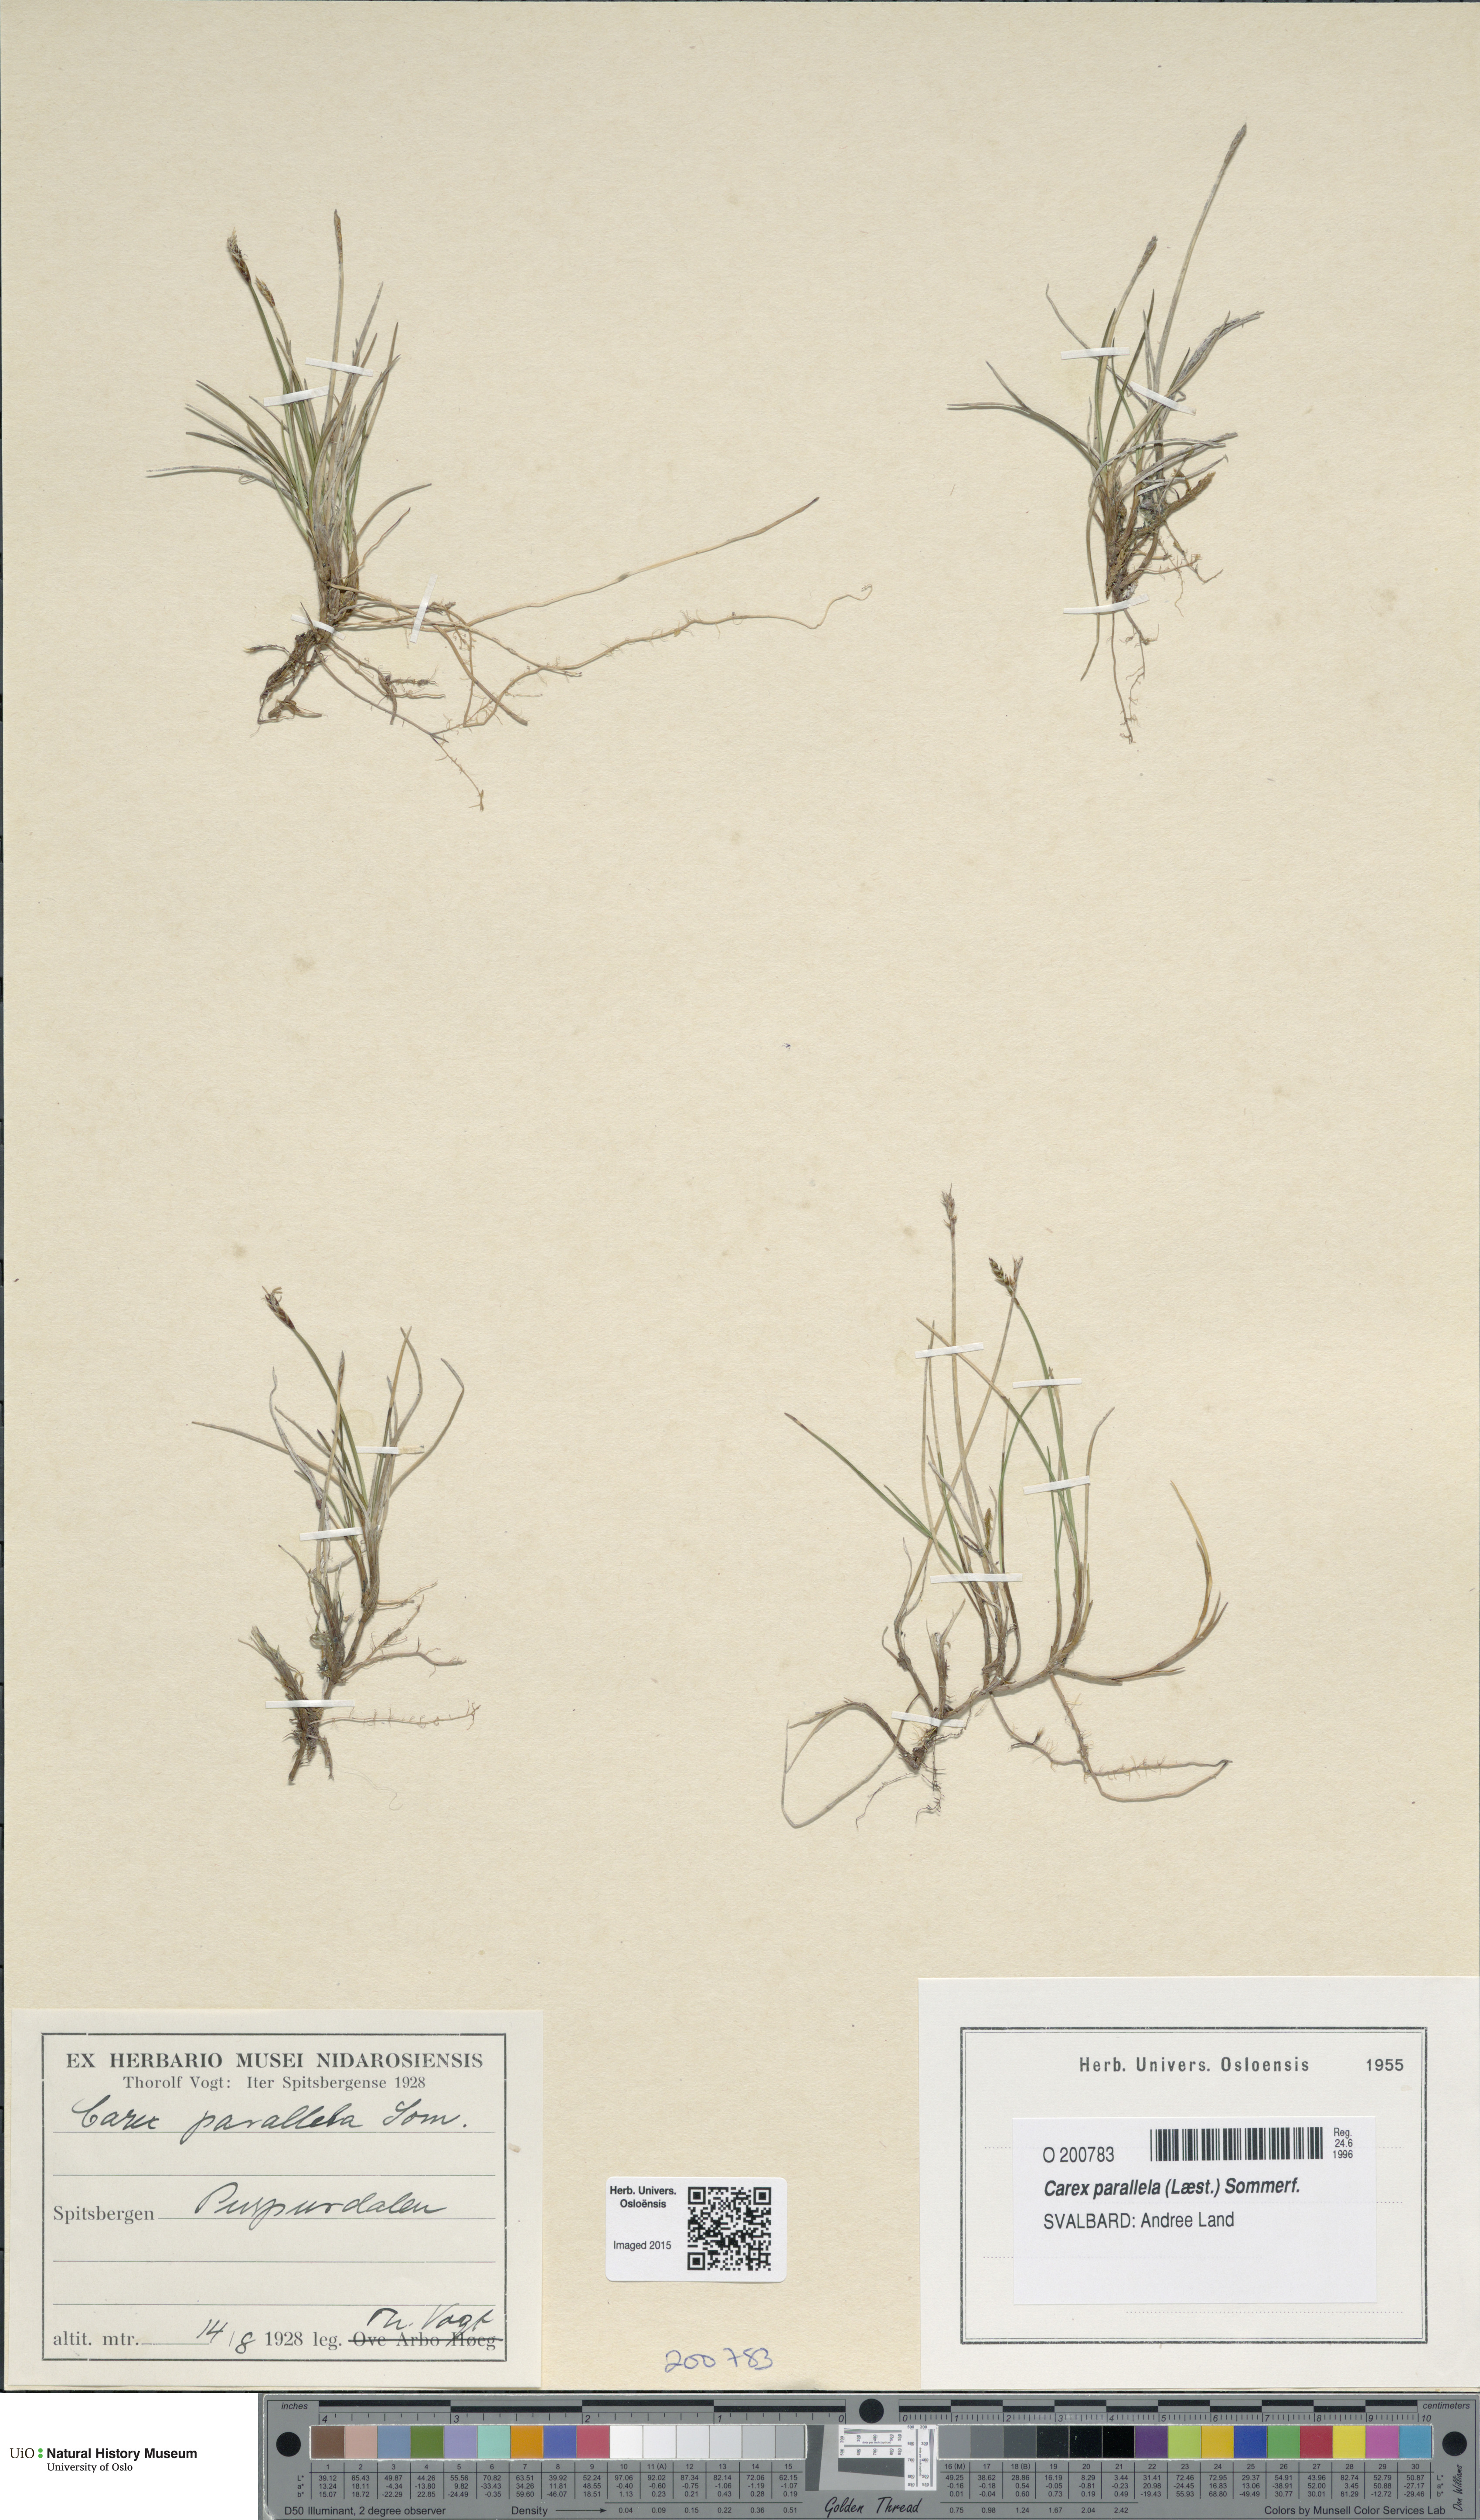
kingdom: Plantae
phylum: Tracheophyta
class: Liliopsida
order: Poales
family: Cyperaceae
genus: Carex
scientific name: Carex parallela
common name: Parallel sedge
